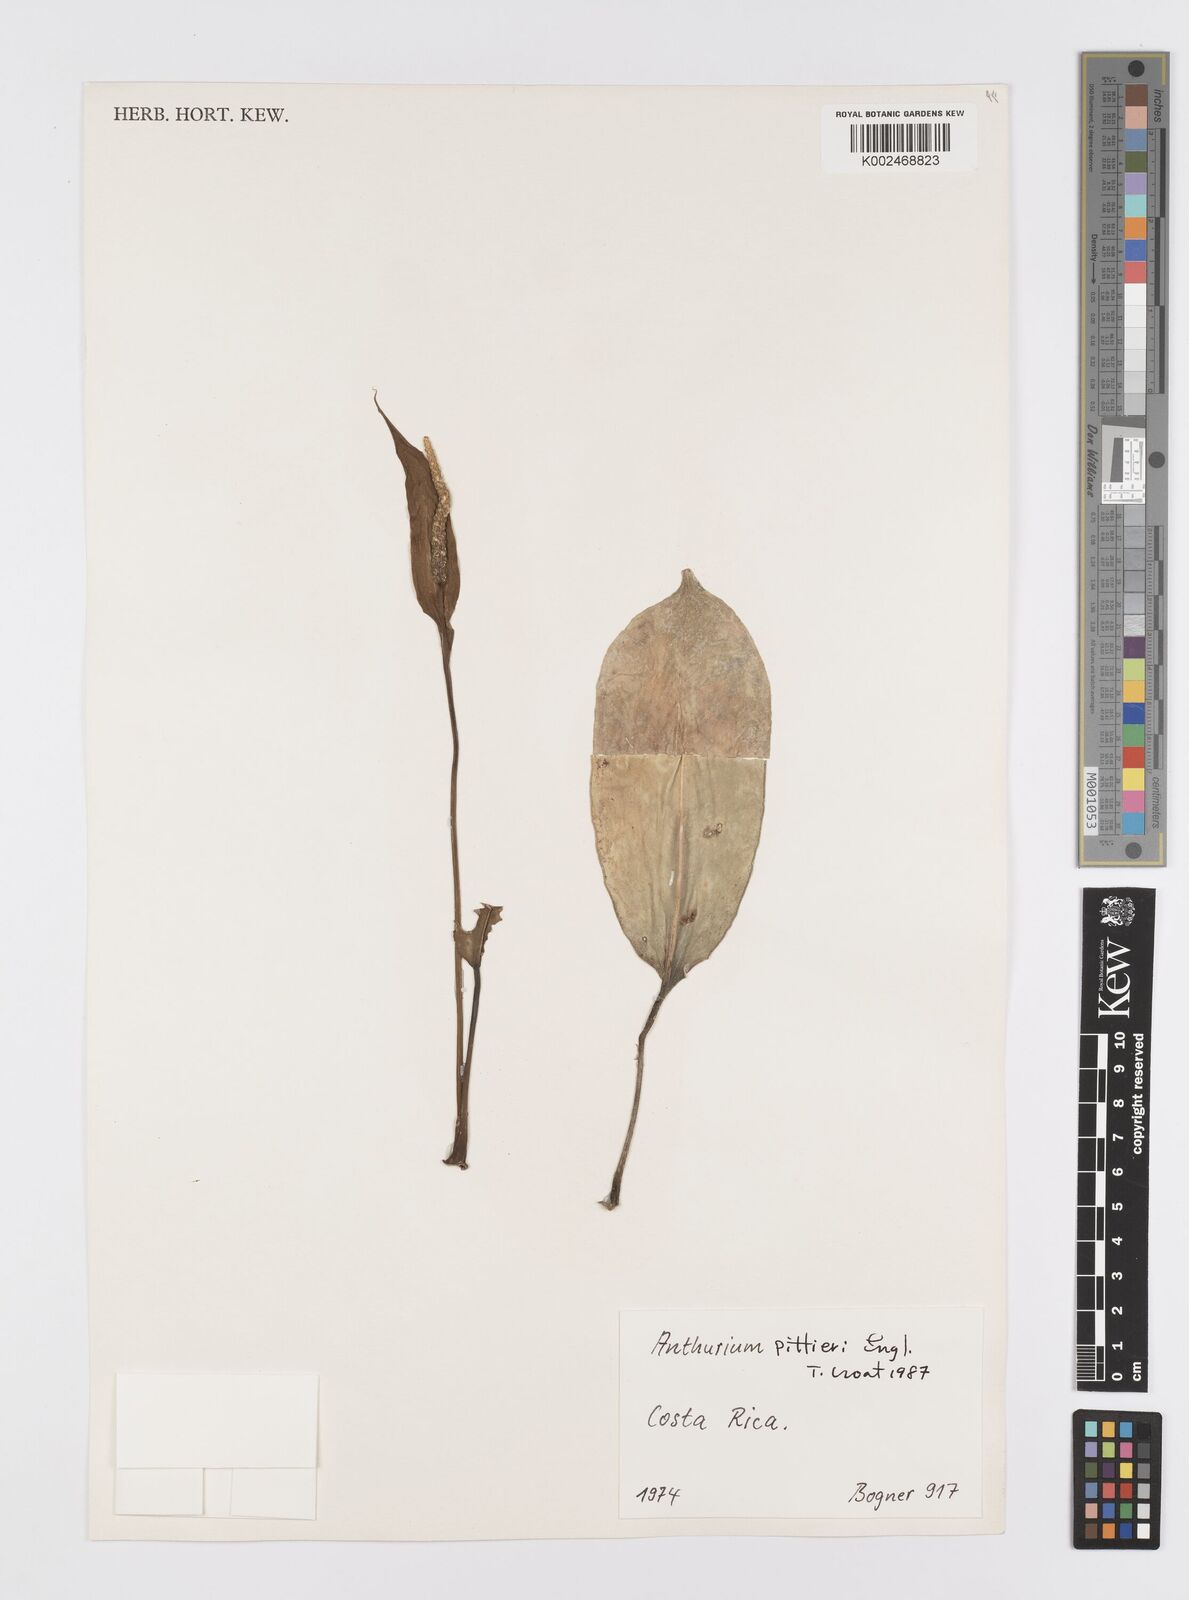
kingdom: Plantae
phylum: Tracheophyta
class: Liliopsida
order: Alismatales
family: Araceae
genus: Anthurium
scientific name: Anthurium pittieri
